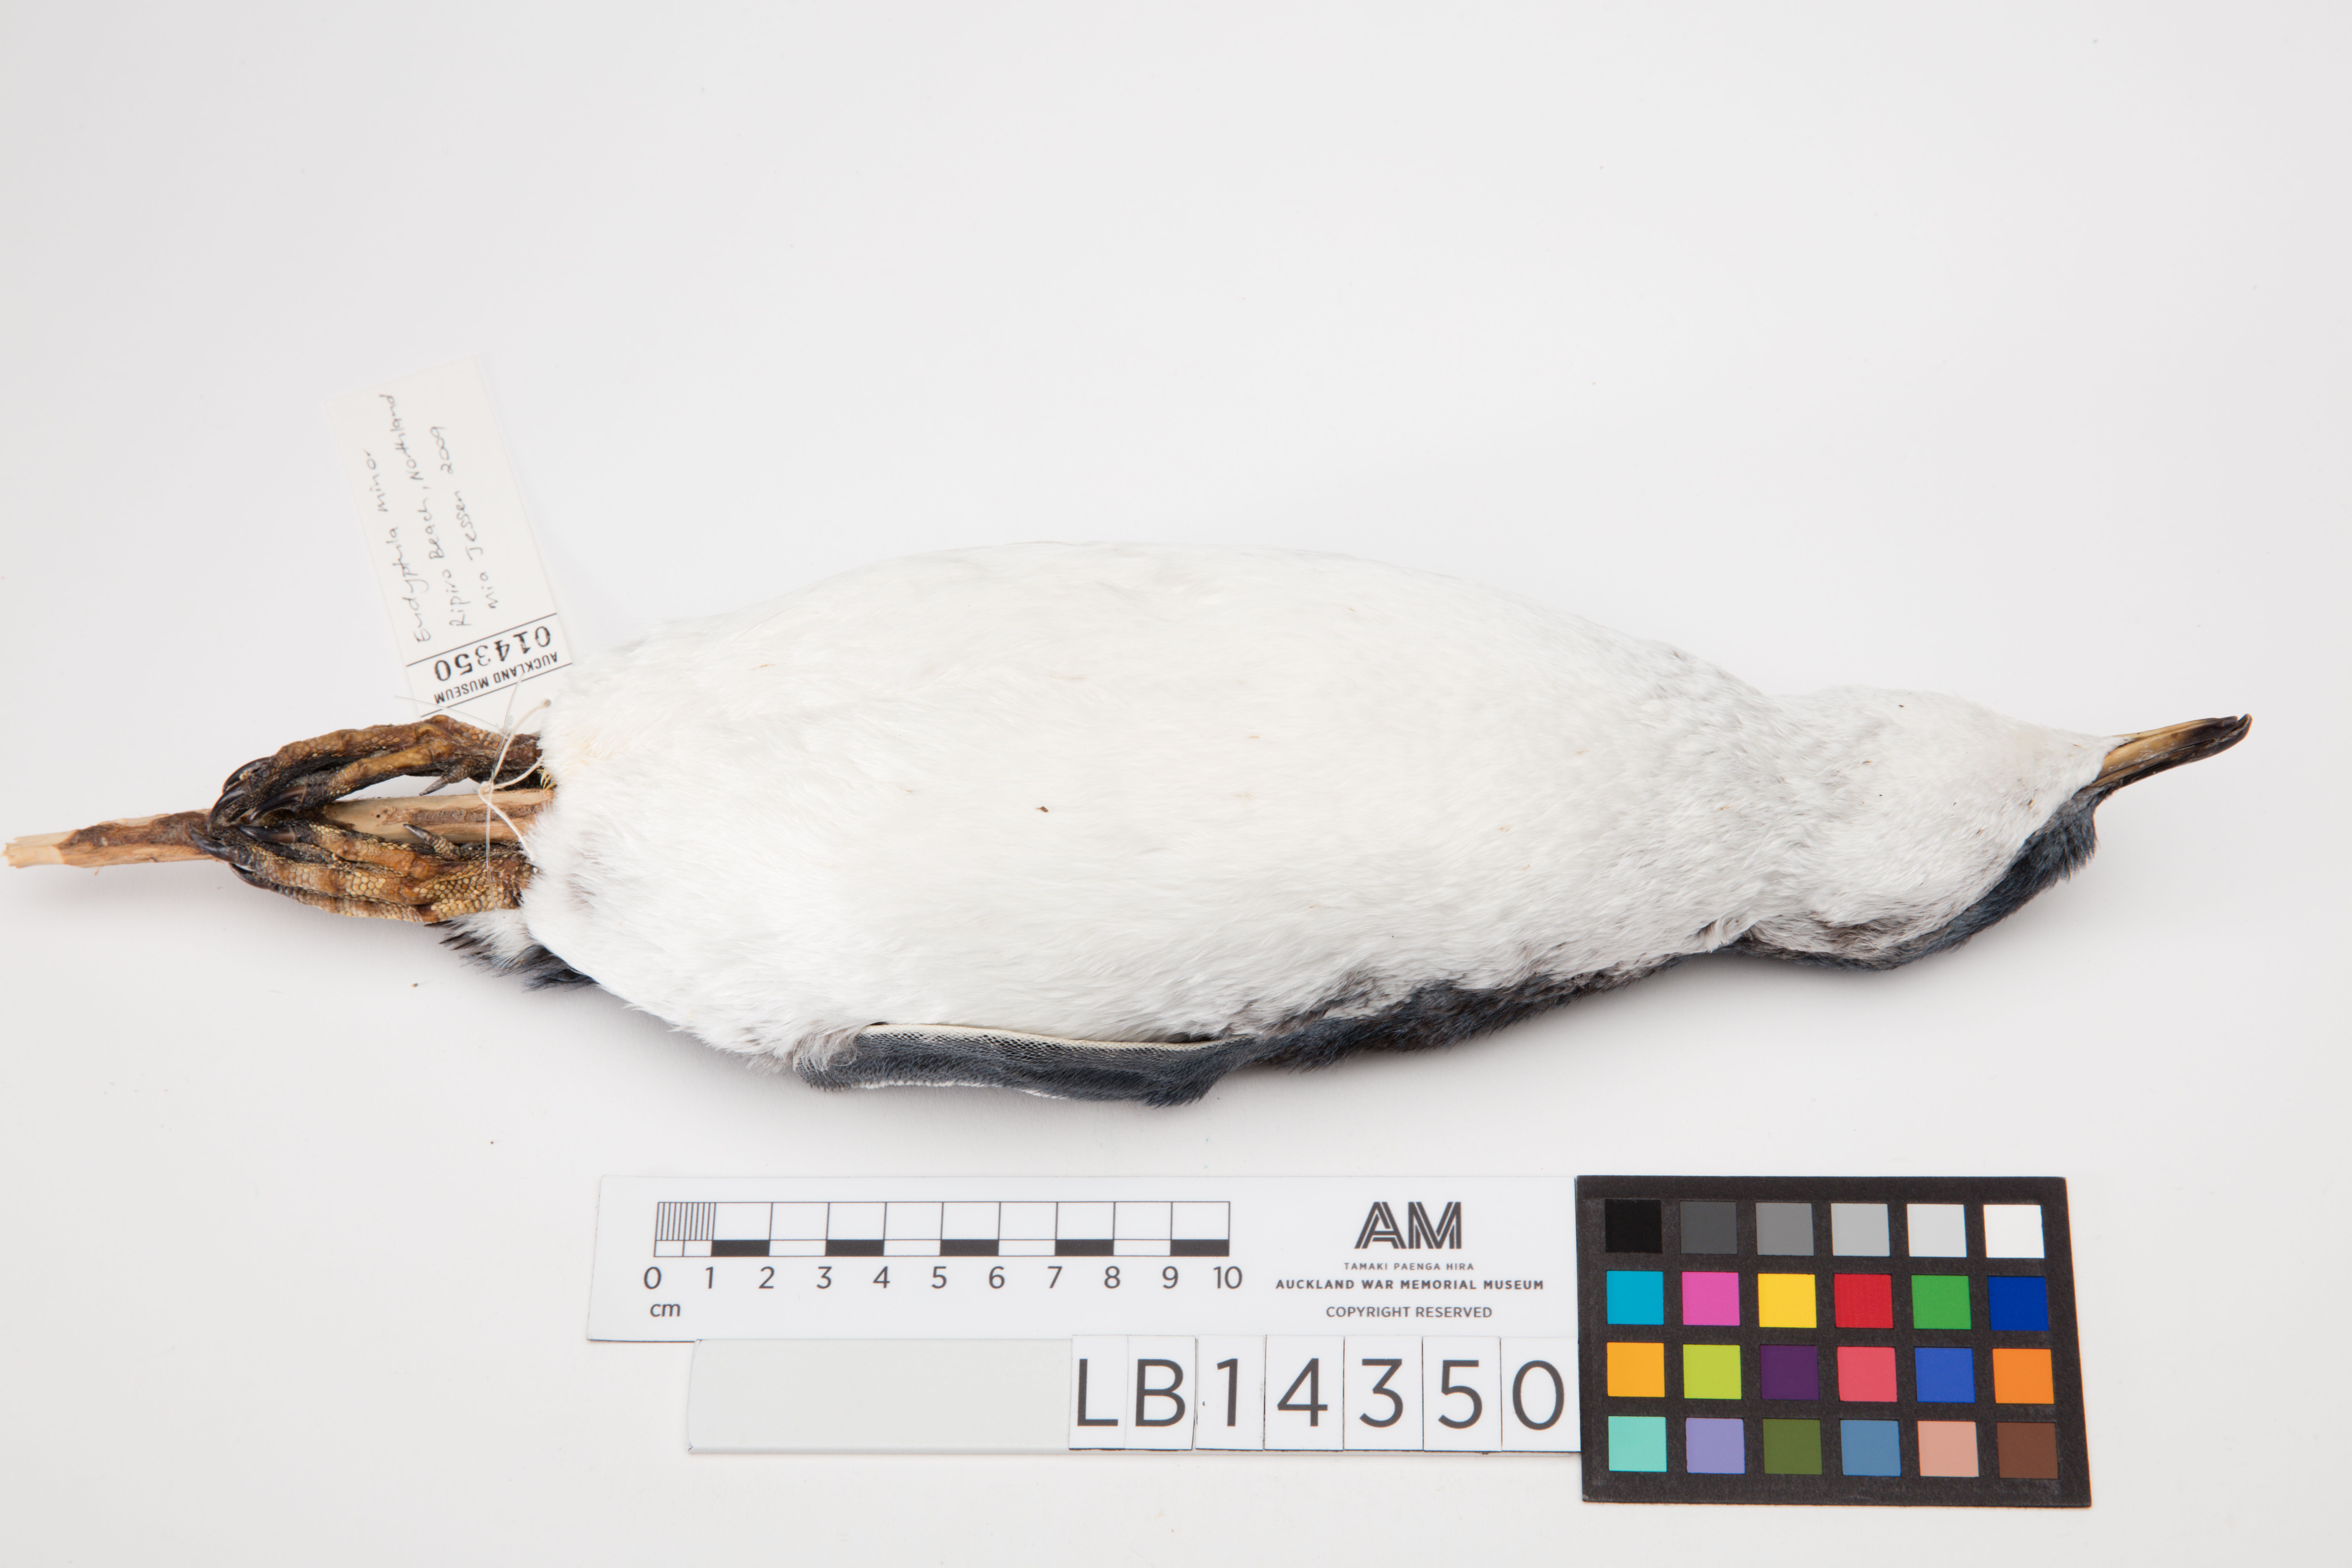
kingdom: Animalia
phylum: Chordata
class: Aves
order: Sphenisciformes
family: Spheniscidae
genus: Eudyptula
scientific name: Eudyptula minor
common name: Little penguin
